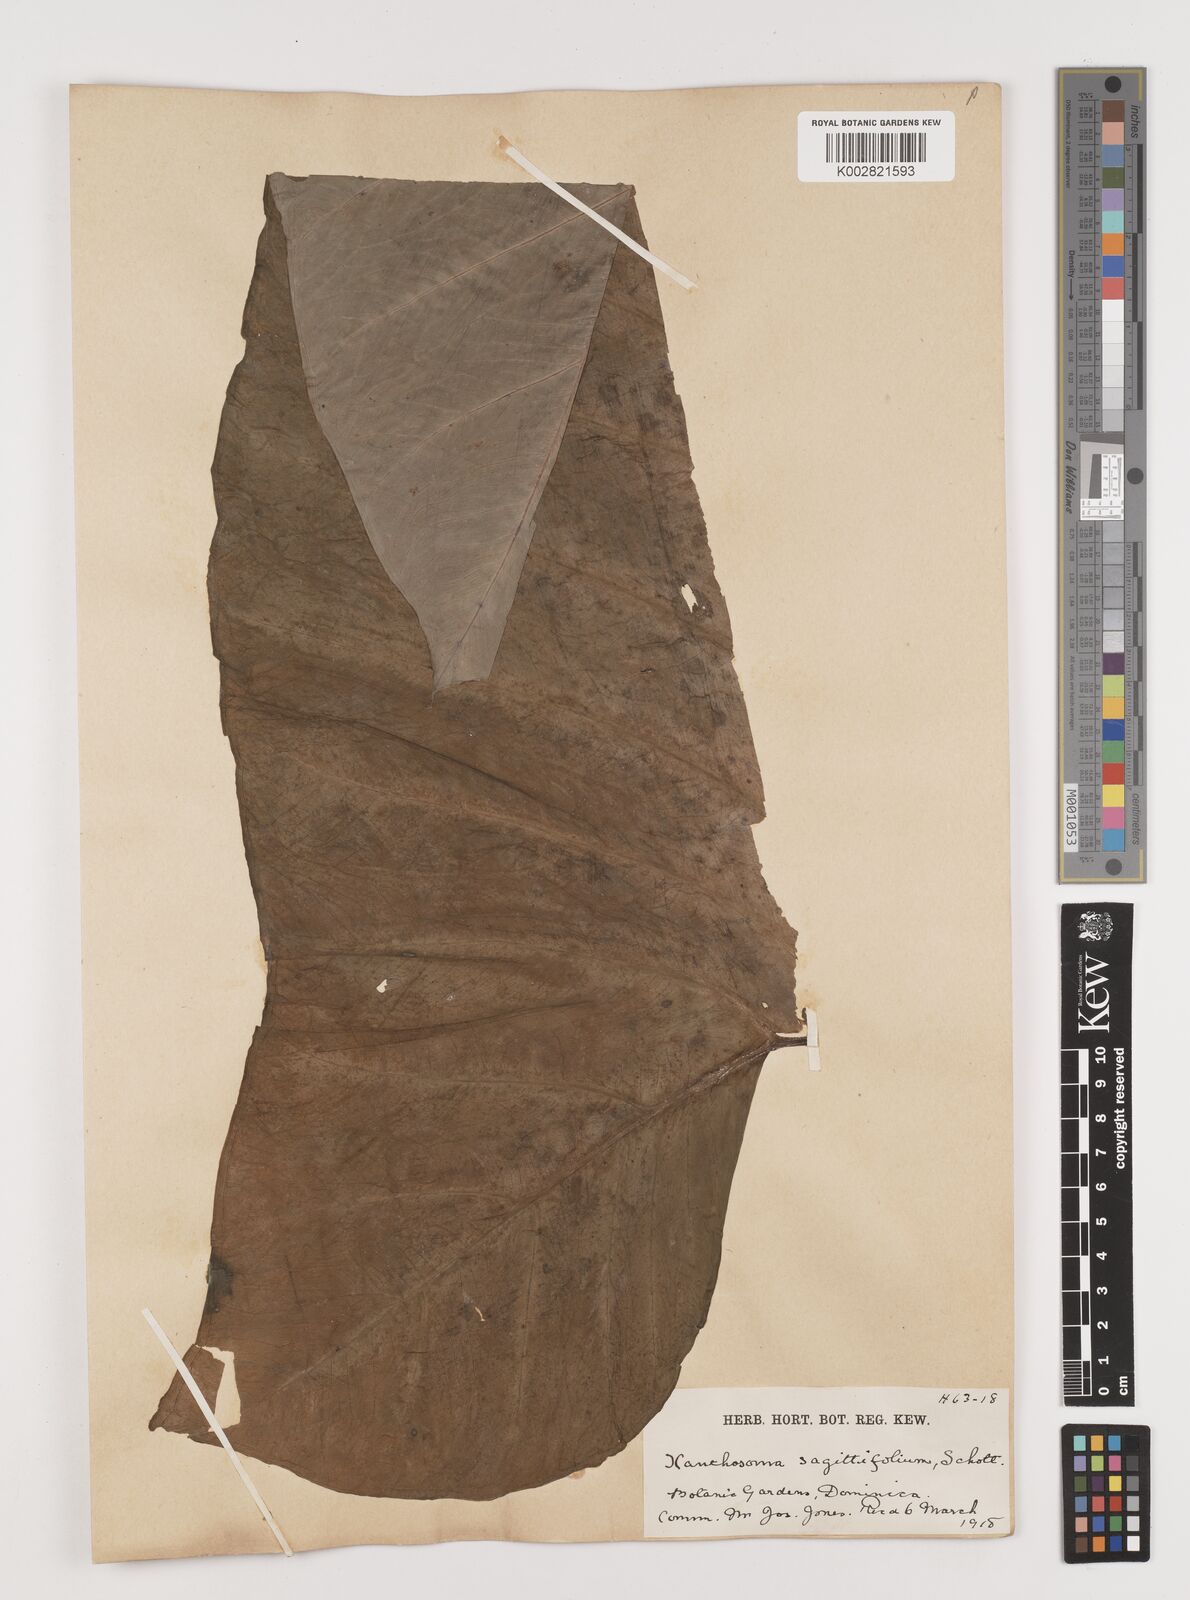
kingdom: Plantae
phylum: Tracheophyta
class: Liliopsida
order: Alismatales
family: Araceae
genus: Xanthosoma
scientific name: Xanthosoma sagittifolium
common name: Arrowleaf elephant's ear
